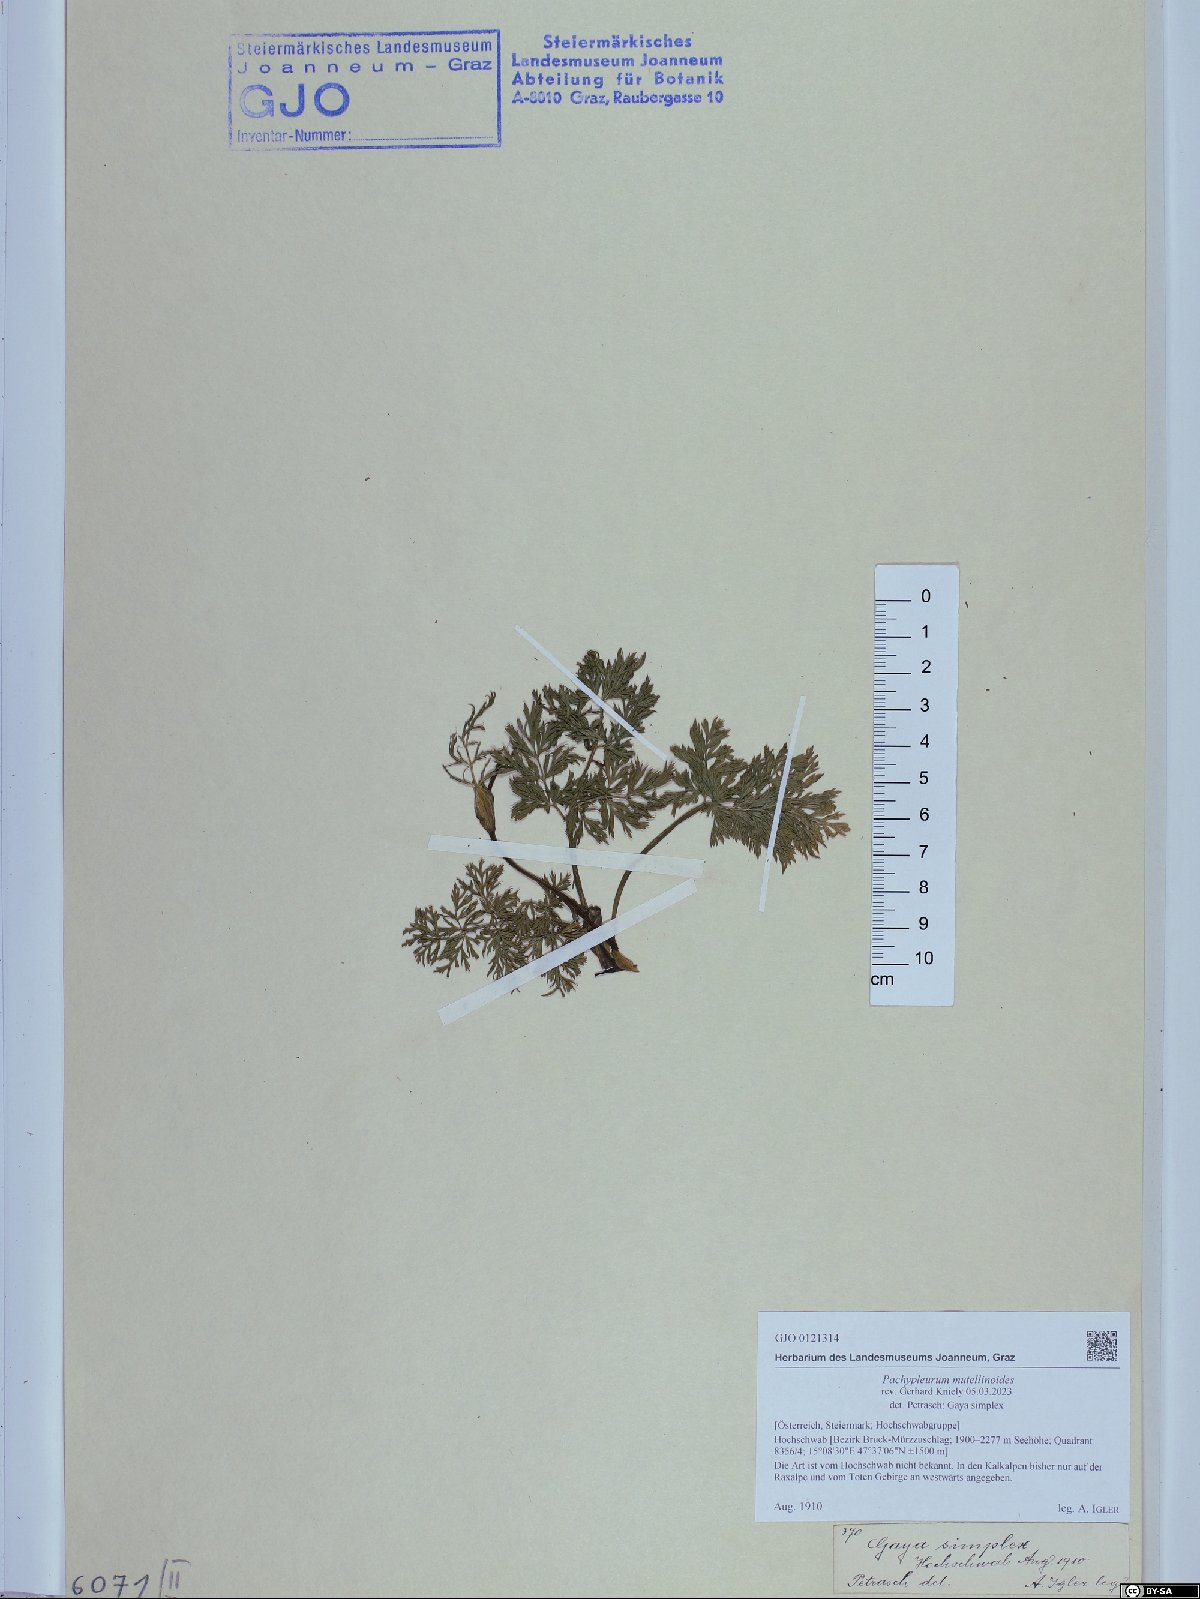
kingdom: Plantae
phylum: Tracheophyta
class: Magnoliopsida
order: Apiales
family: Apiaceae
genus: Pachypleurum
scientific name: Pachypleurum mutellinoides
